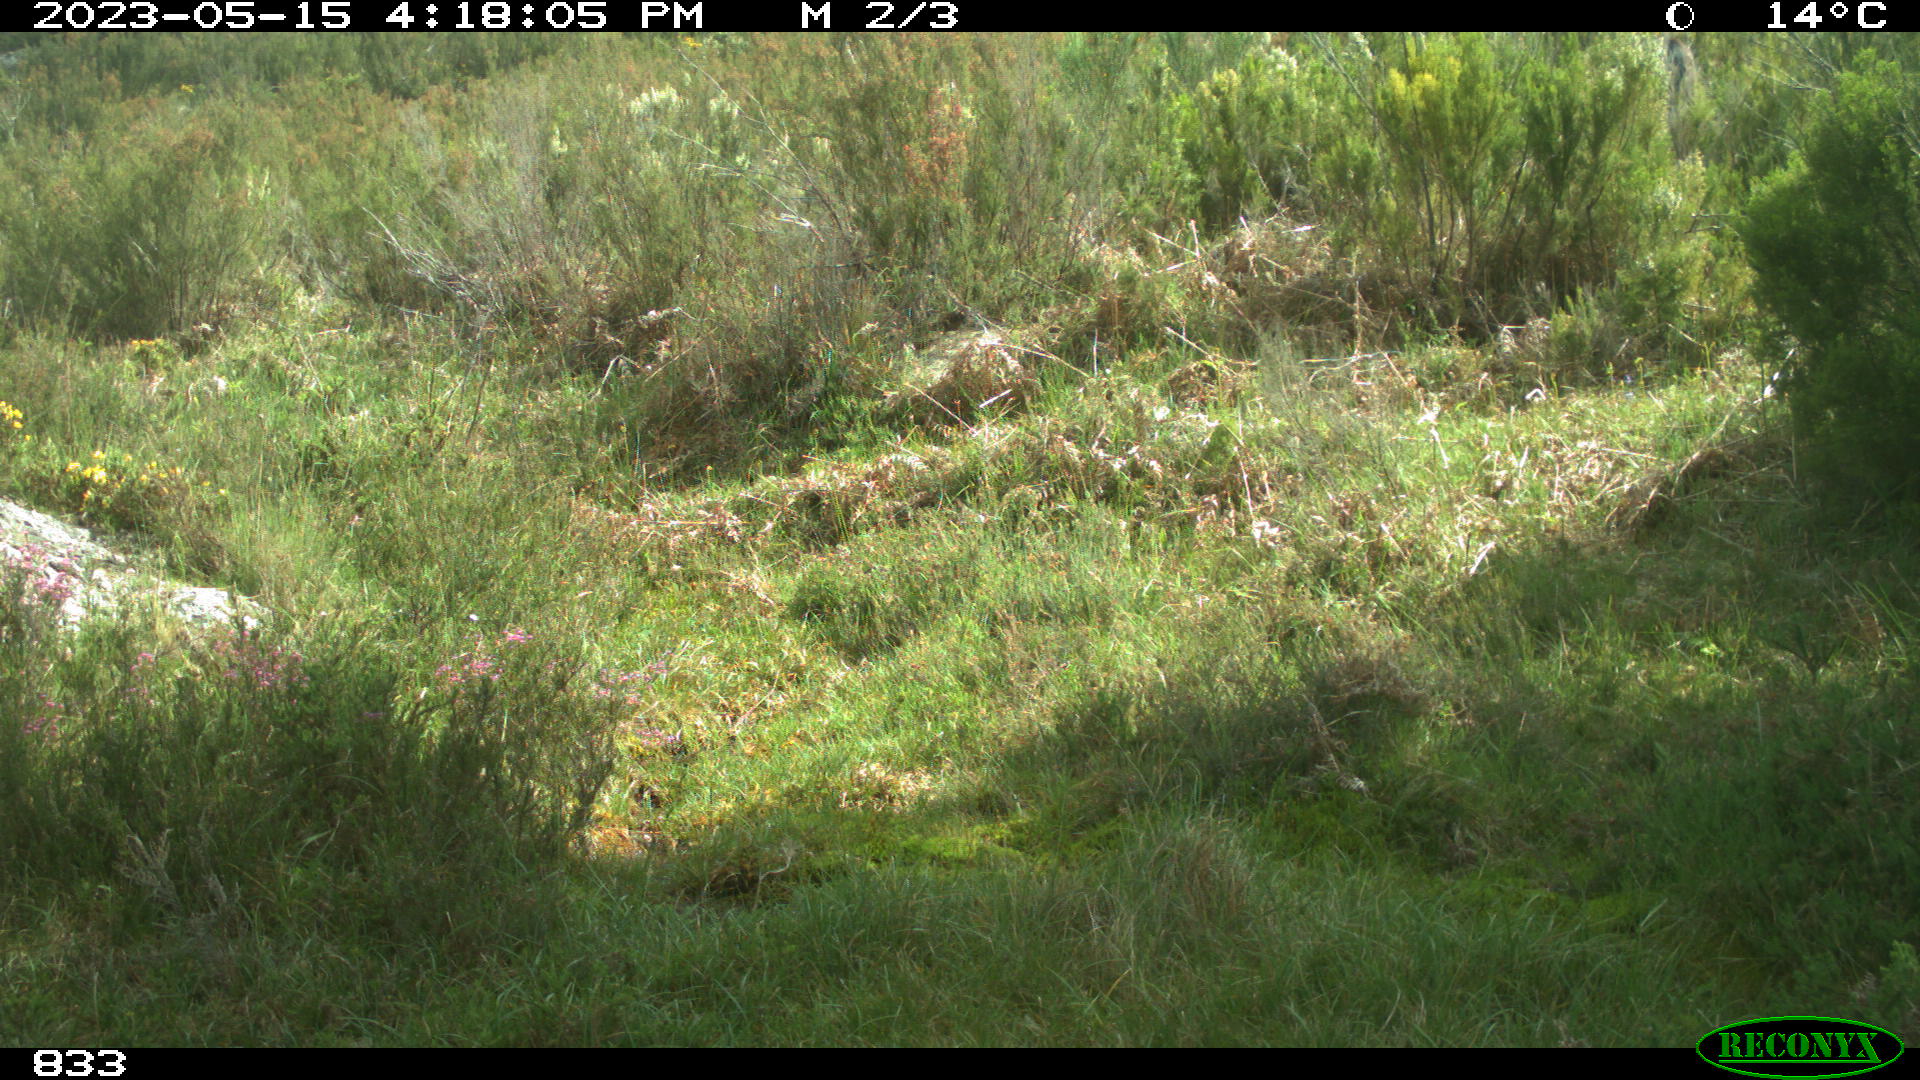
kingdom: Animalia
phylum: Chordata
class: Mammalia
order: Perissodactyla
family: Equidae
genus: Equus
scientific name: Equus caballus
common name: Horse
